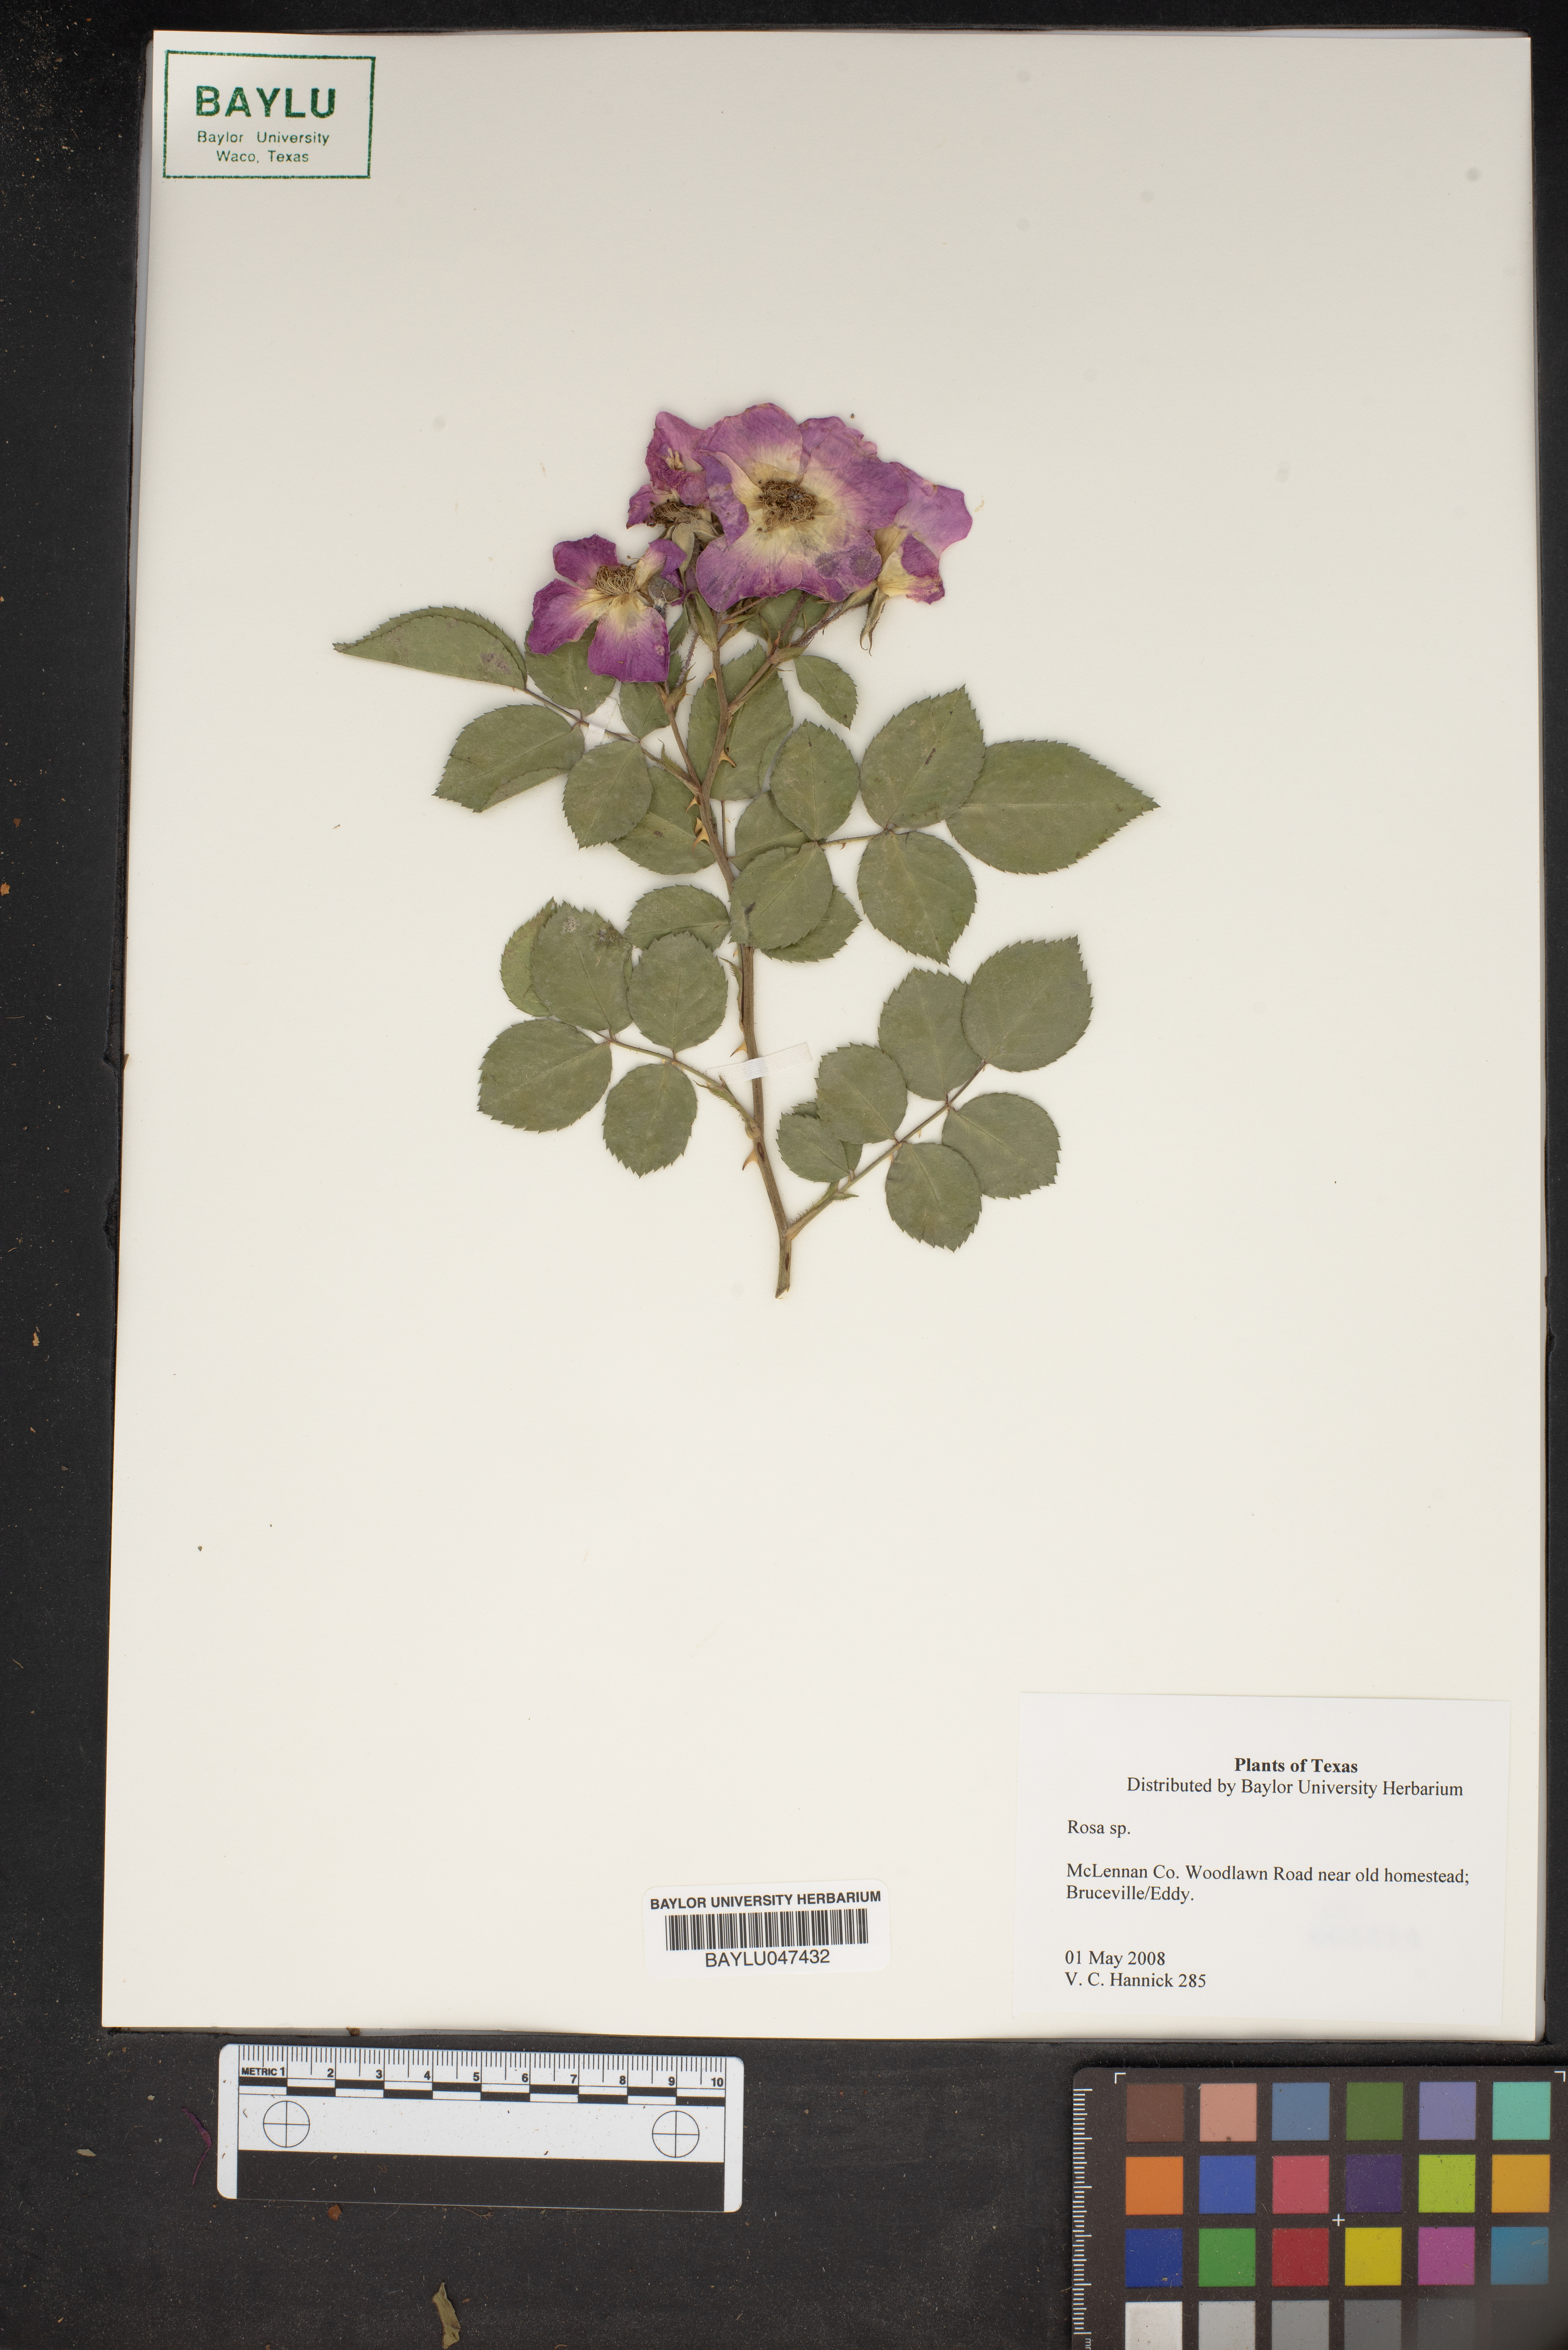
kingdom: Plantae
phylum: Tracheophyta
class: Magnoliopsida
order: Rosales
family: Rosaceae
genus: Rosa
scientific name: Rosa
